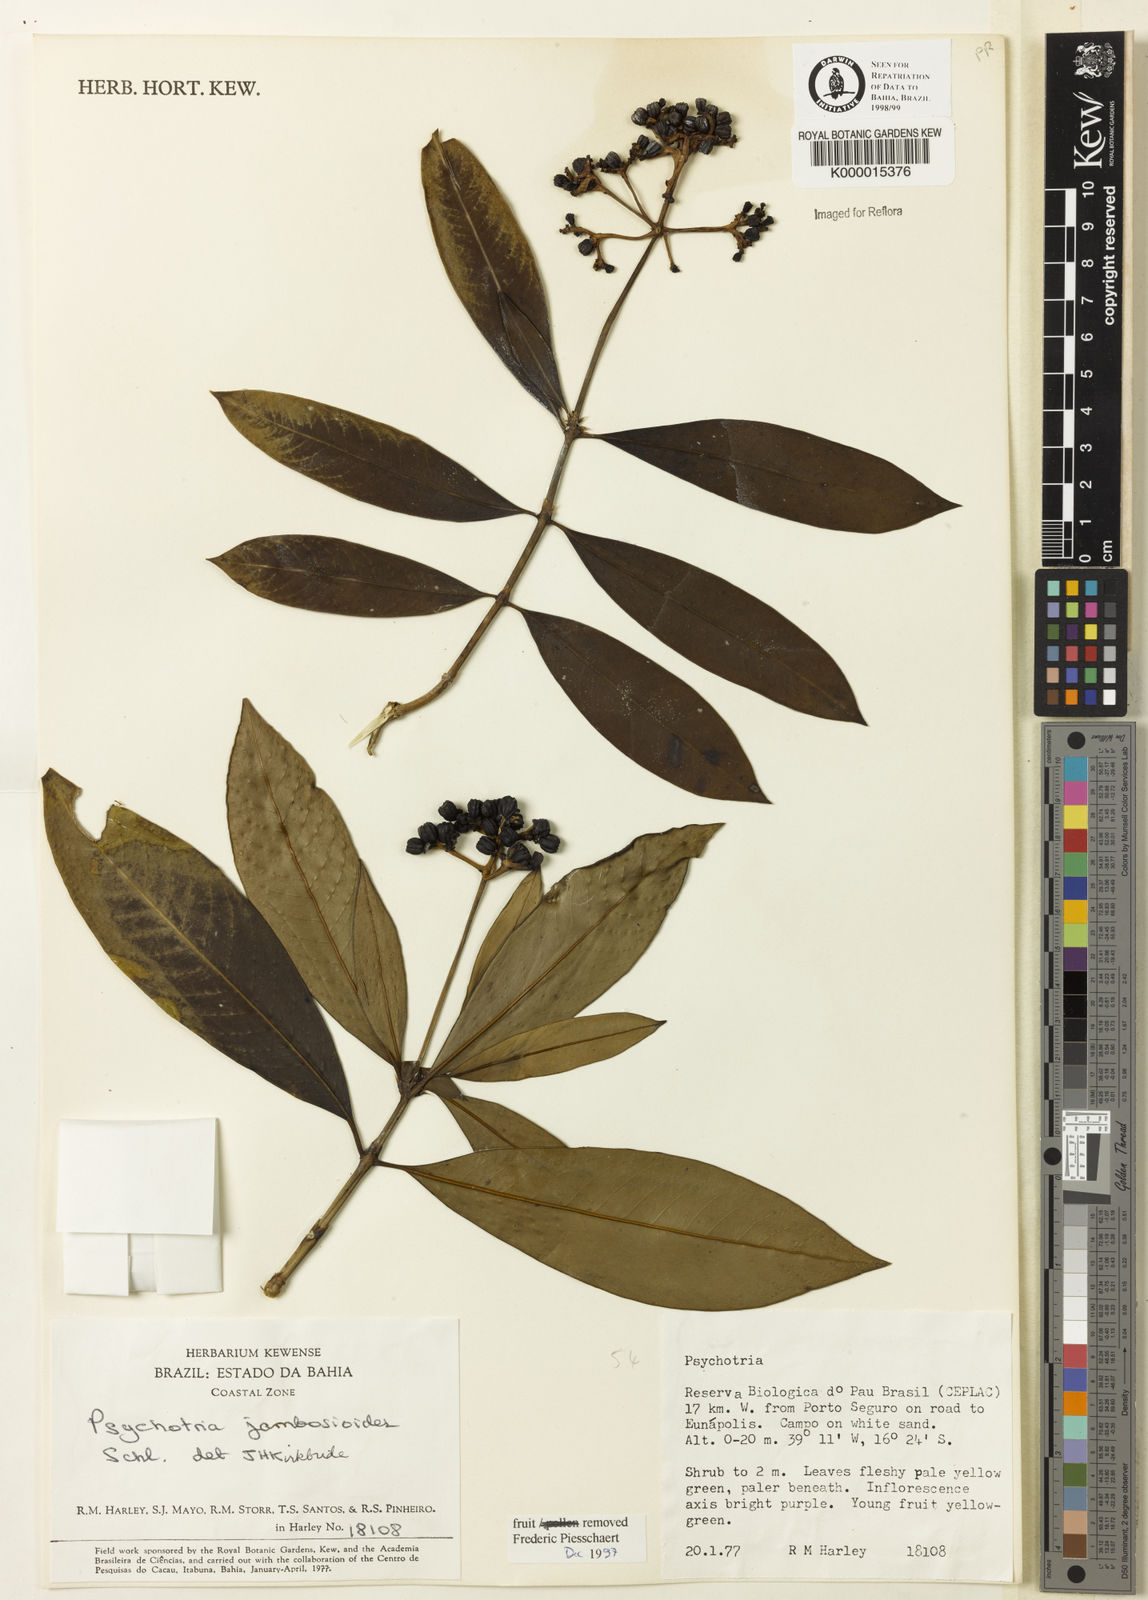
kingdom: Plantae
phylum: Tracheophyta
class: Magnoliopsida
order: Gentianales
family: Rubiaceae
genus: Palicourea
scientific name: Palicourea jambosioides
